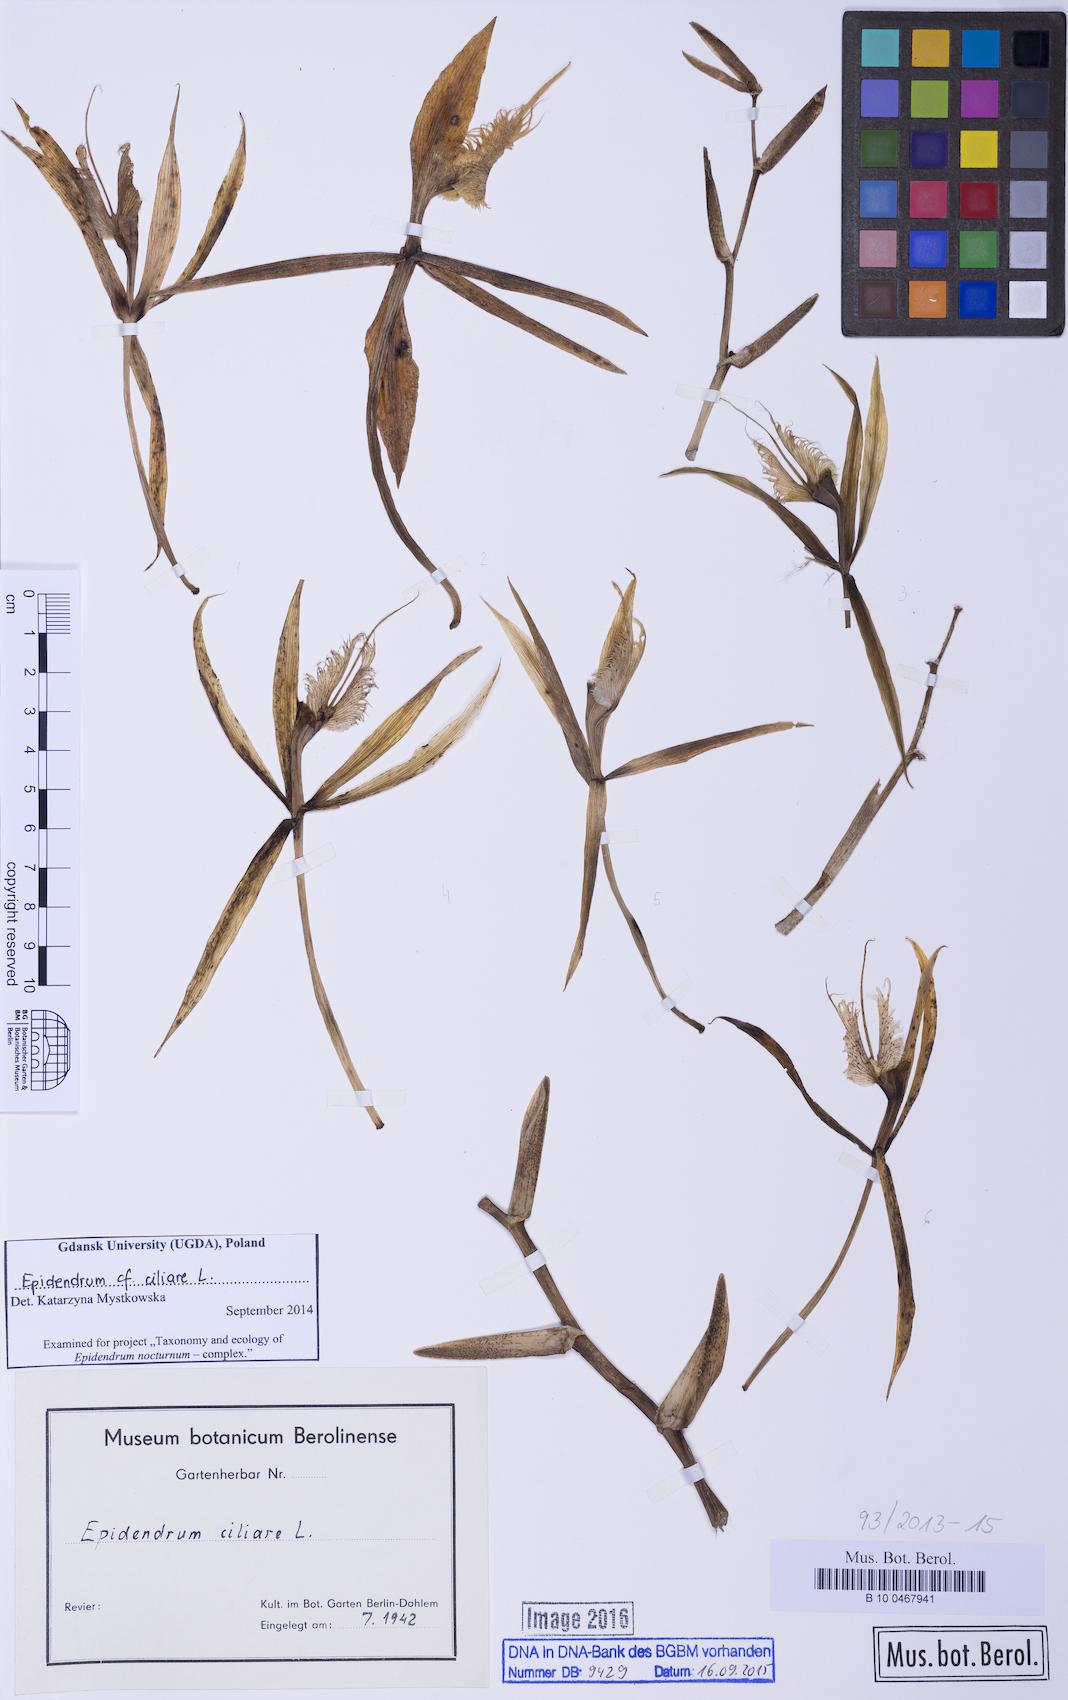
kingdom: Plantae
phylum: Tracheophyta
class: Liliopsida
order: Asparagales
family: Orchidaceae
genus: Epidendrum
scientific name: Epidendrum ciliare
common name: Eyelash orchid
